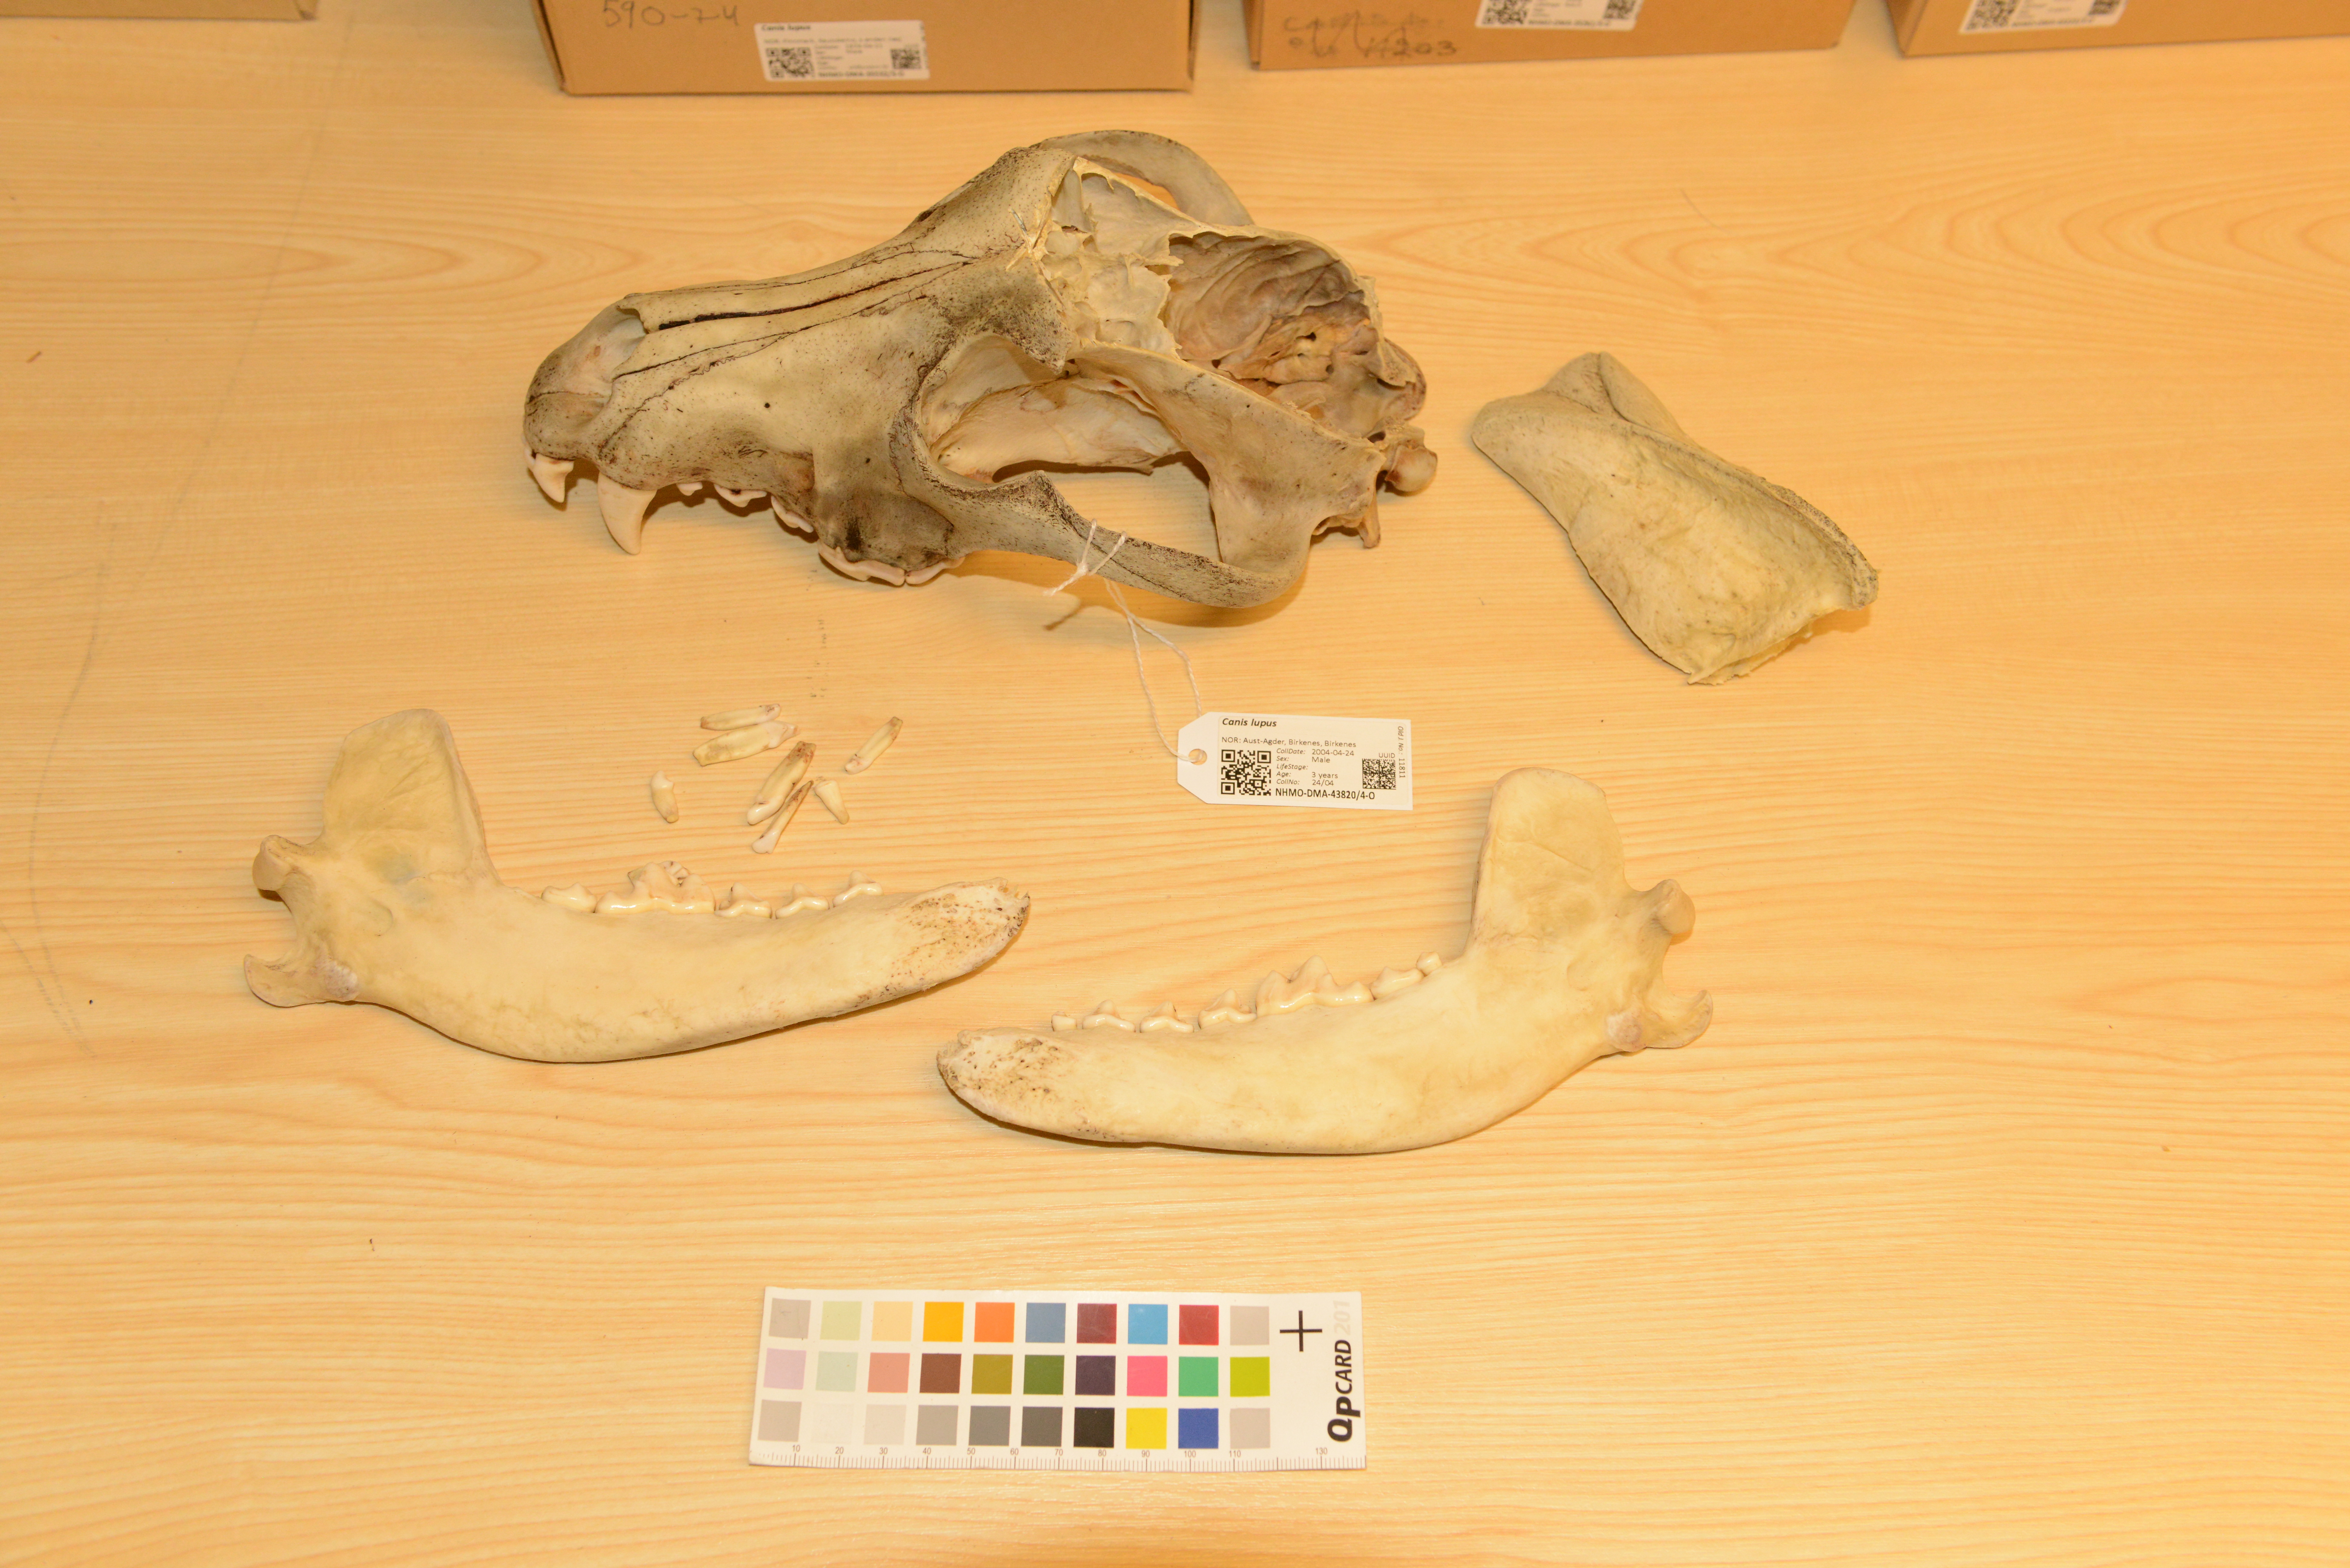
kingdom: Animalia
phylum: Chordata
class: Mammalia
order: Carnivora
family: Canidae
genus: Canis
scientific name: Canis lupus
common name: Gray wolf
